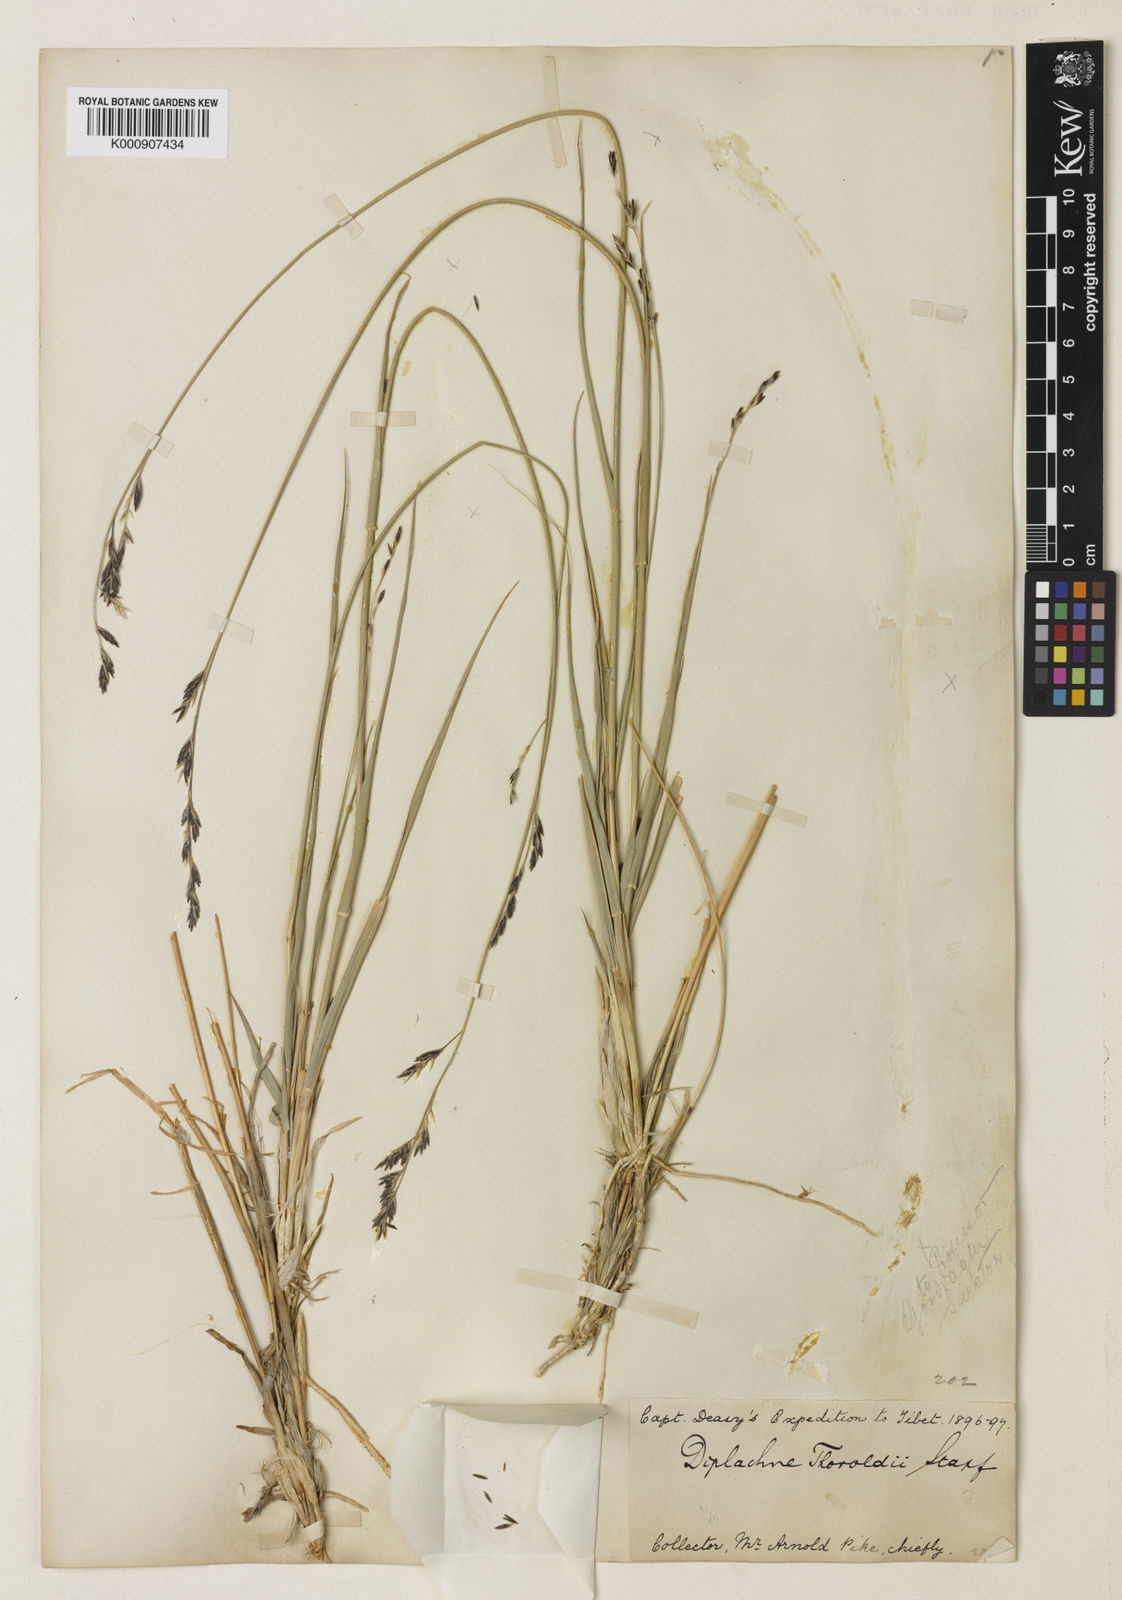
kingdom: Plantae
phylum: Tracheophyta
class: Liliopsida
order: Poales
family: Poaceae
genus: Orinus
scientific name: Orinus thoroldii
